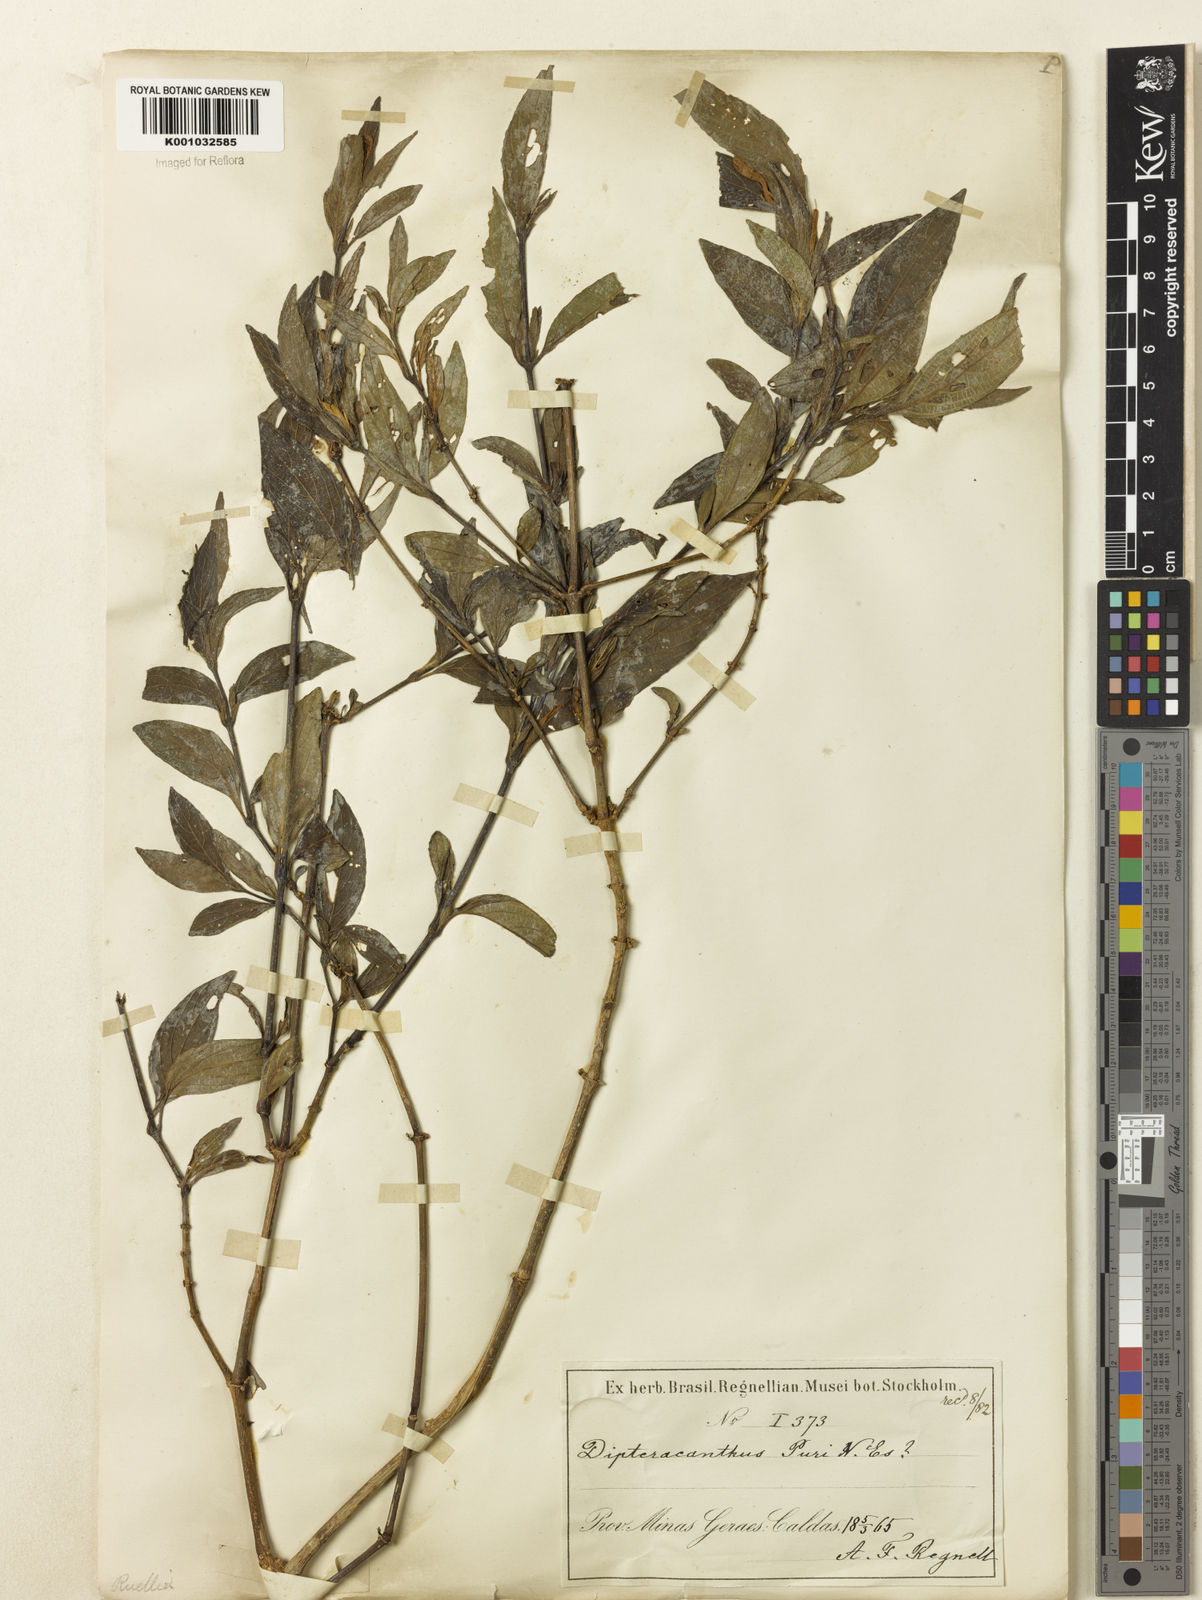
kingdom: Plantae
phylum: Tracheophyta
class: Magnoliopsida
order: Lamiales
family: Acanthaceae
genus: Ruellia
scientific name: Ruellia jussieuoides
